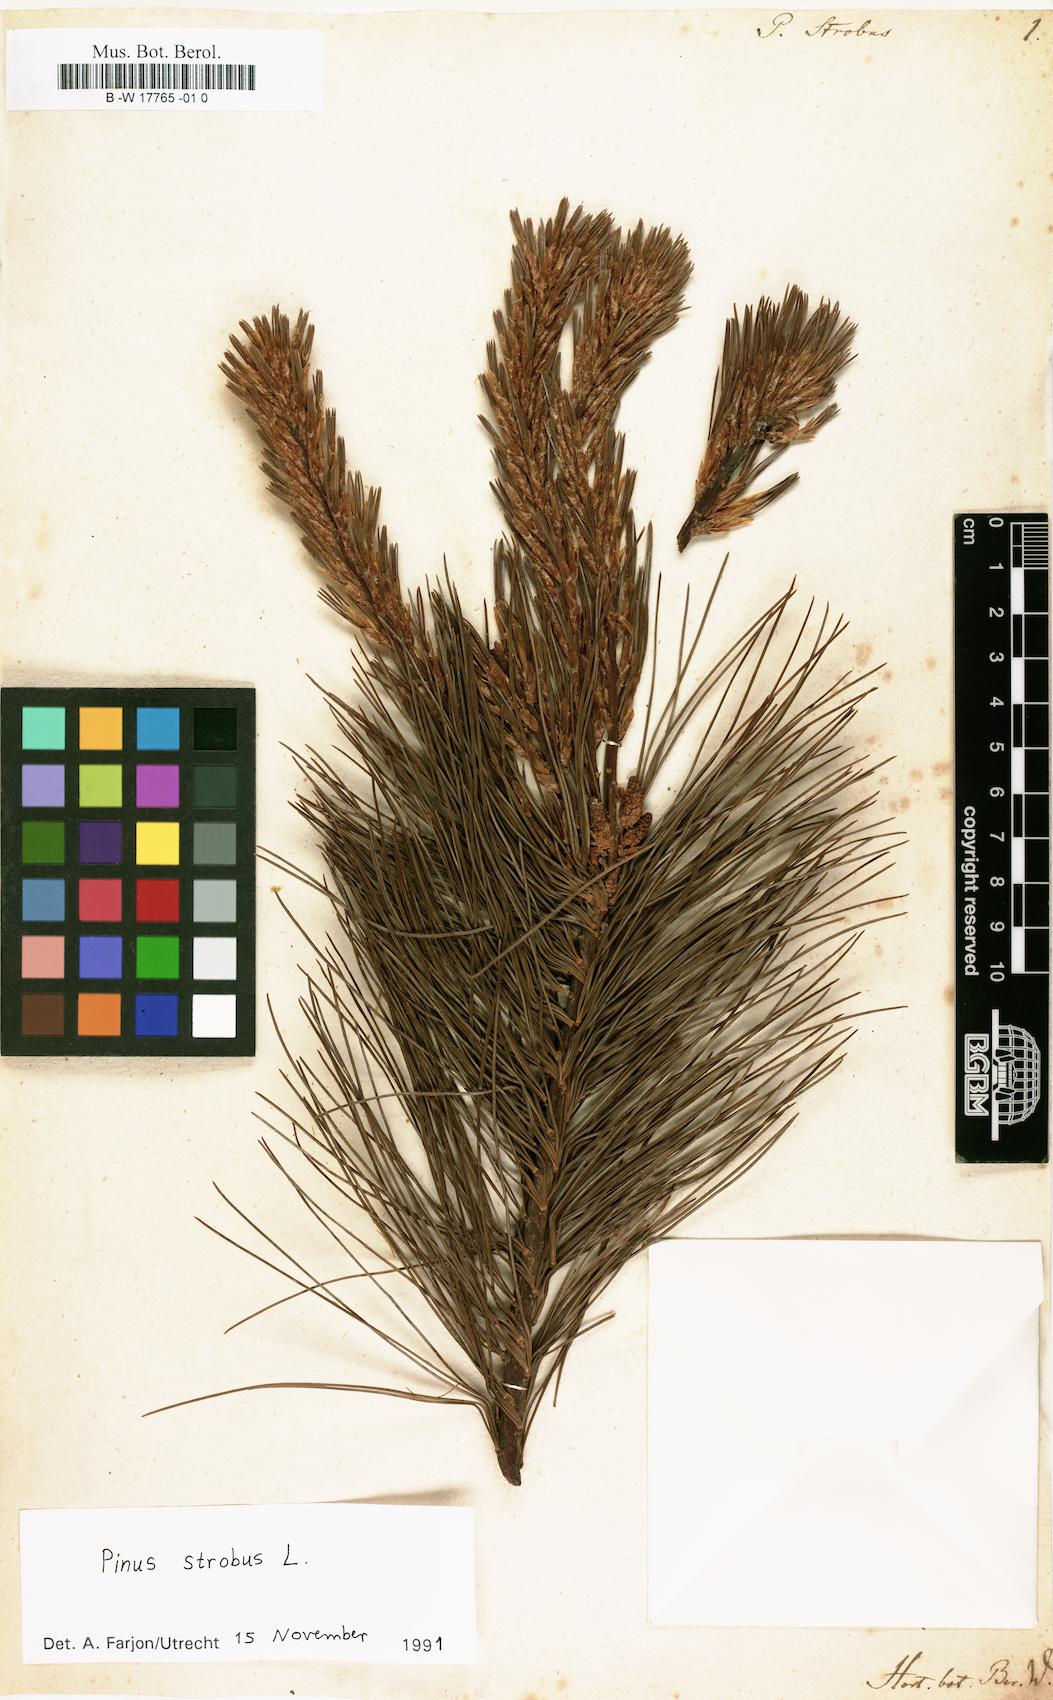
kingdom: Plantae
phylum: Tracheophyta
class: Pinopsida
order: Pinales
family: Pinaceae
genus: Pinus
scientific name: Pinus strobus
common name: Weymouth pine
